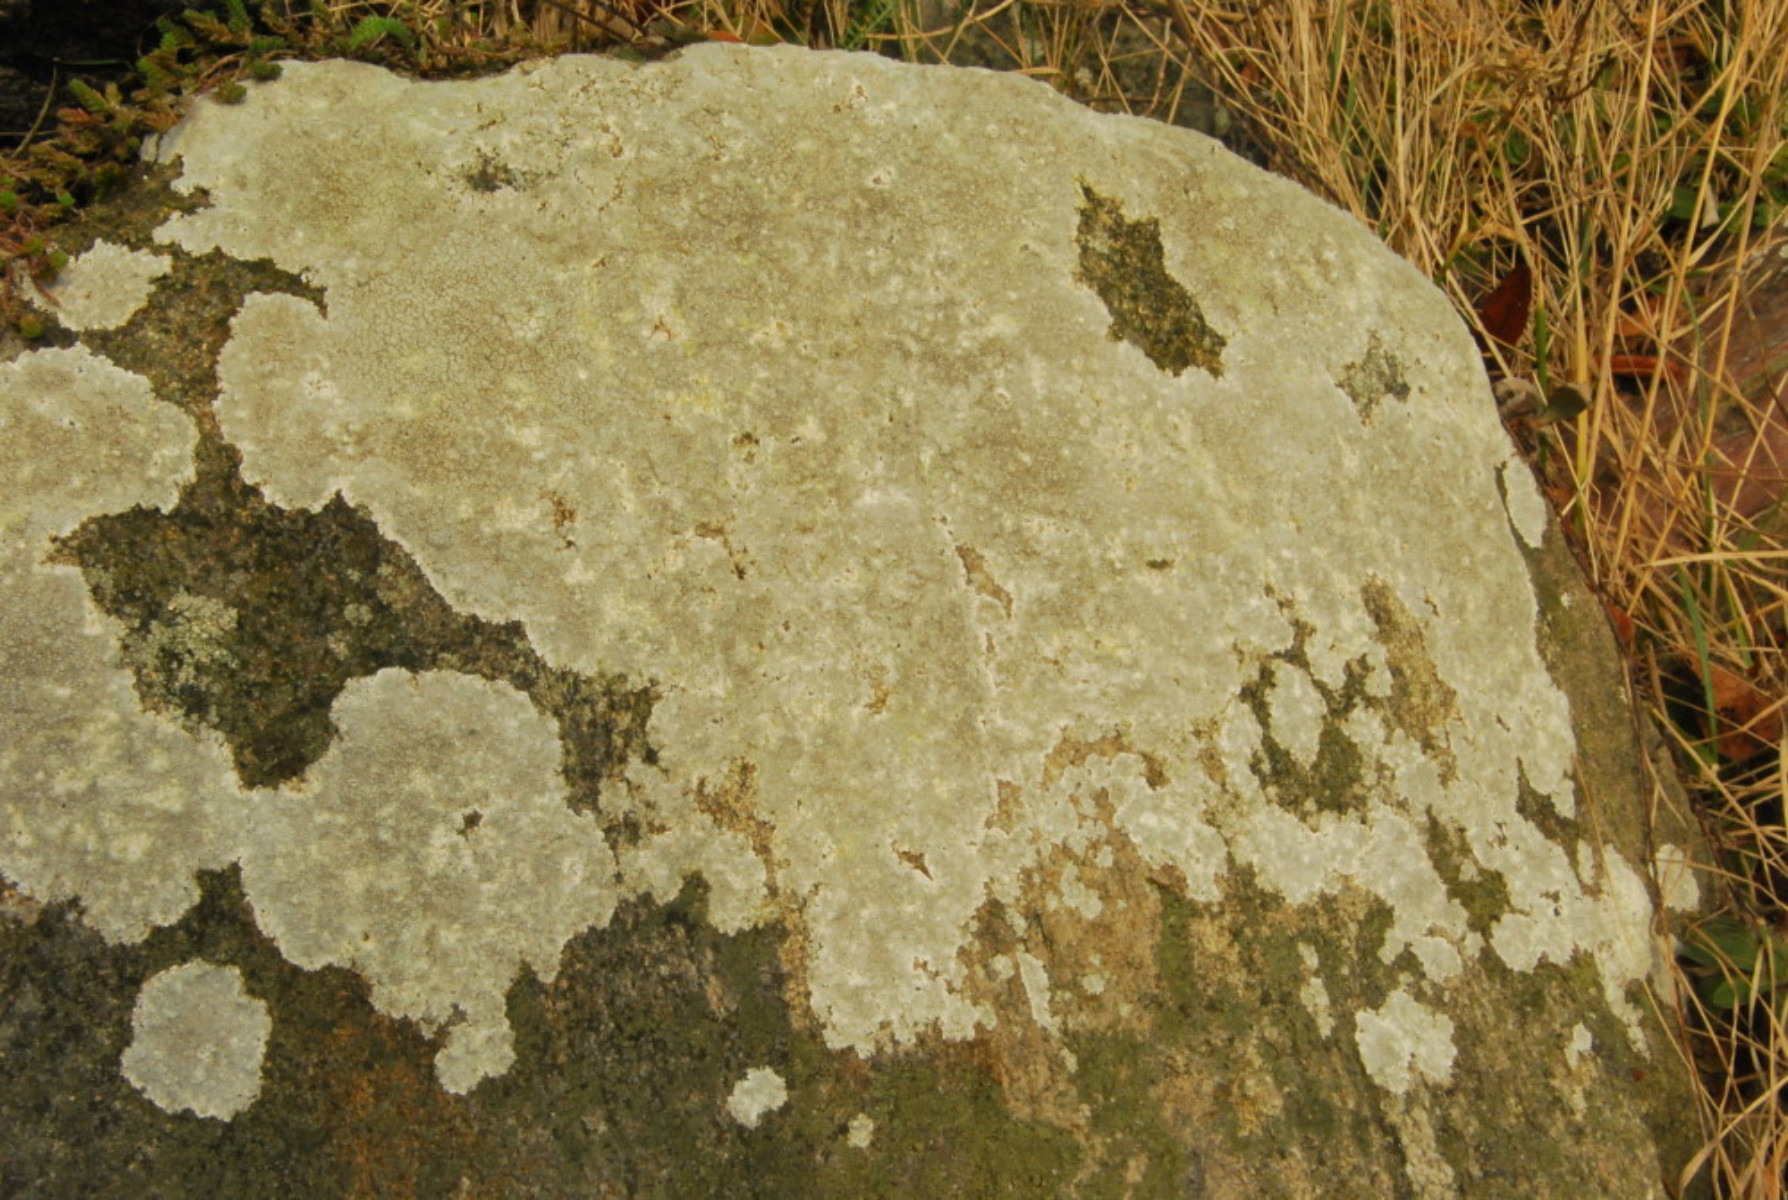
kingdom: Fungi
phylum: Ascomycota
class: Lecanoromycetes
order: Lecanorales
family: Lecanoraceae
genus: Glaucomaria
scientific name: Glaucomaria rupicola
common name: stengærde-kantskivelav
